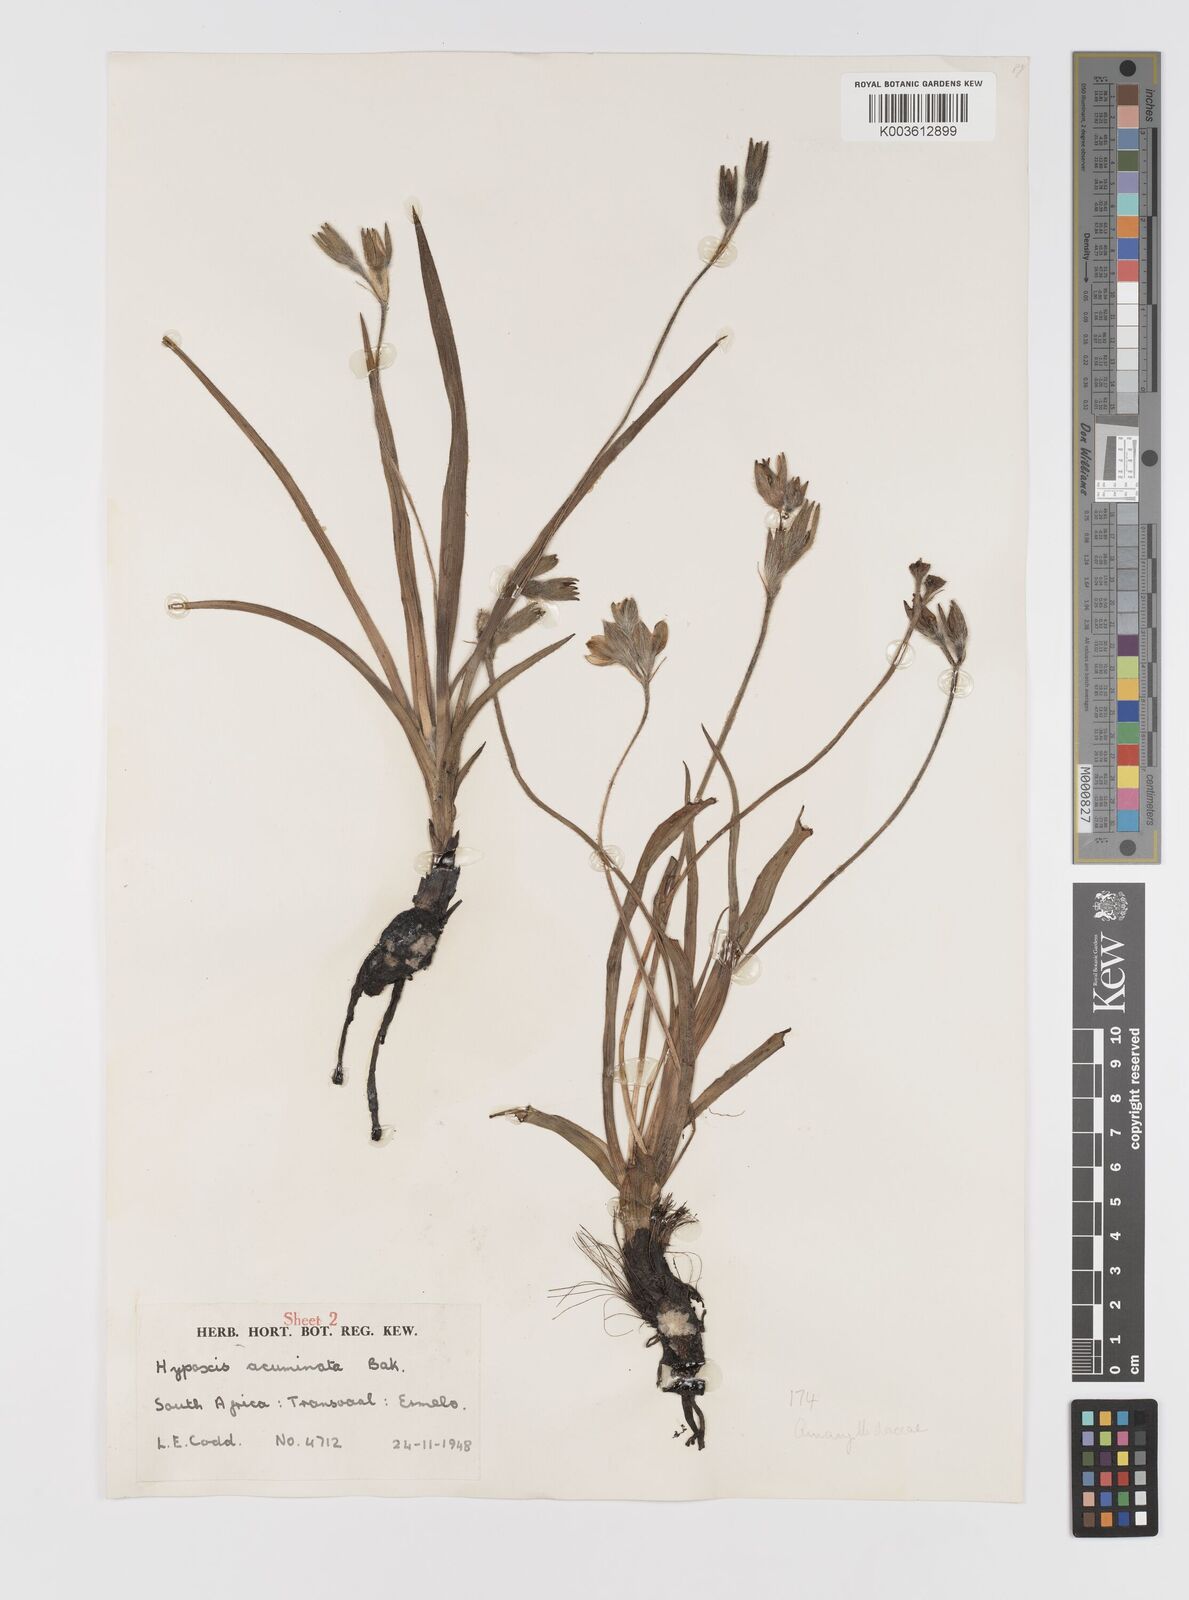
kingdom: Plantae
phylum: Tracheophyta
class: Liliopsida
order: Asparagales
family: Hypoxidaceae
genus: Hypoxis
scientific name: Hypoxis acuminata
